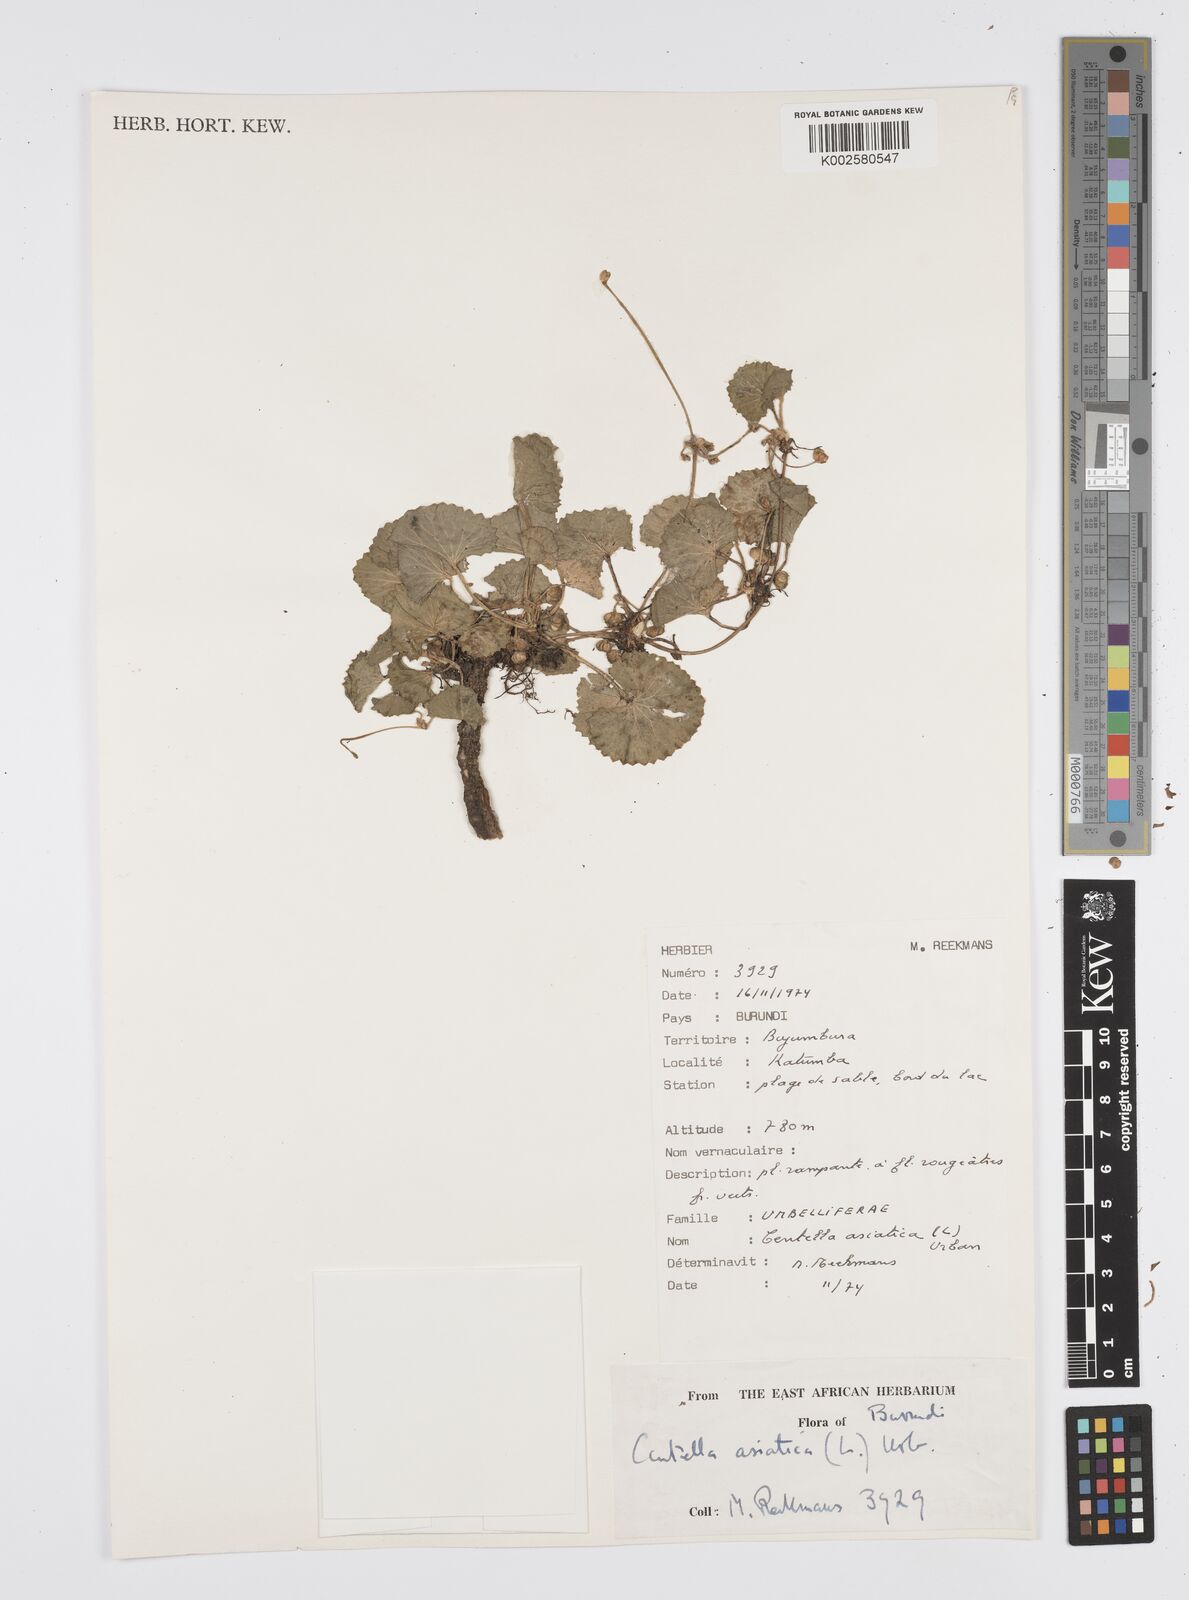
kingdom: Plantae
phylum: Tracheophyta
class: Magnoliopsida
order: Apiales
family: Apiaceae
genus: Centella
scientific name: Centella asiatica
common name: Spadeleaf
